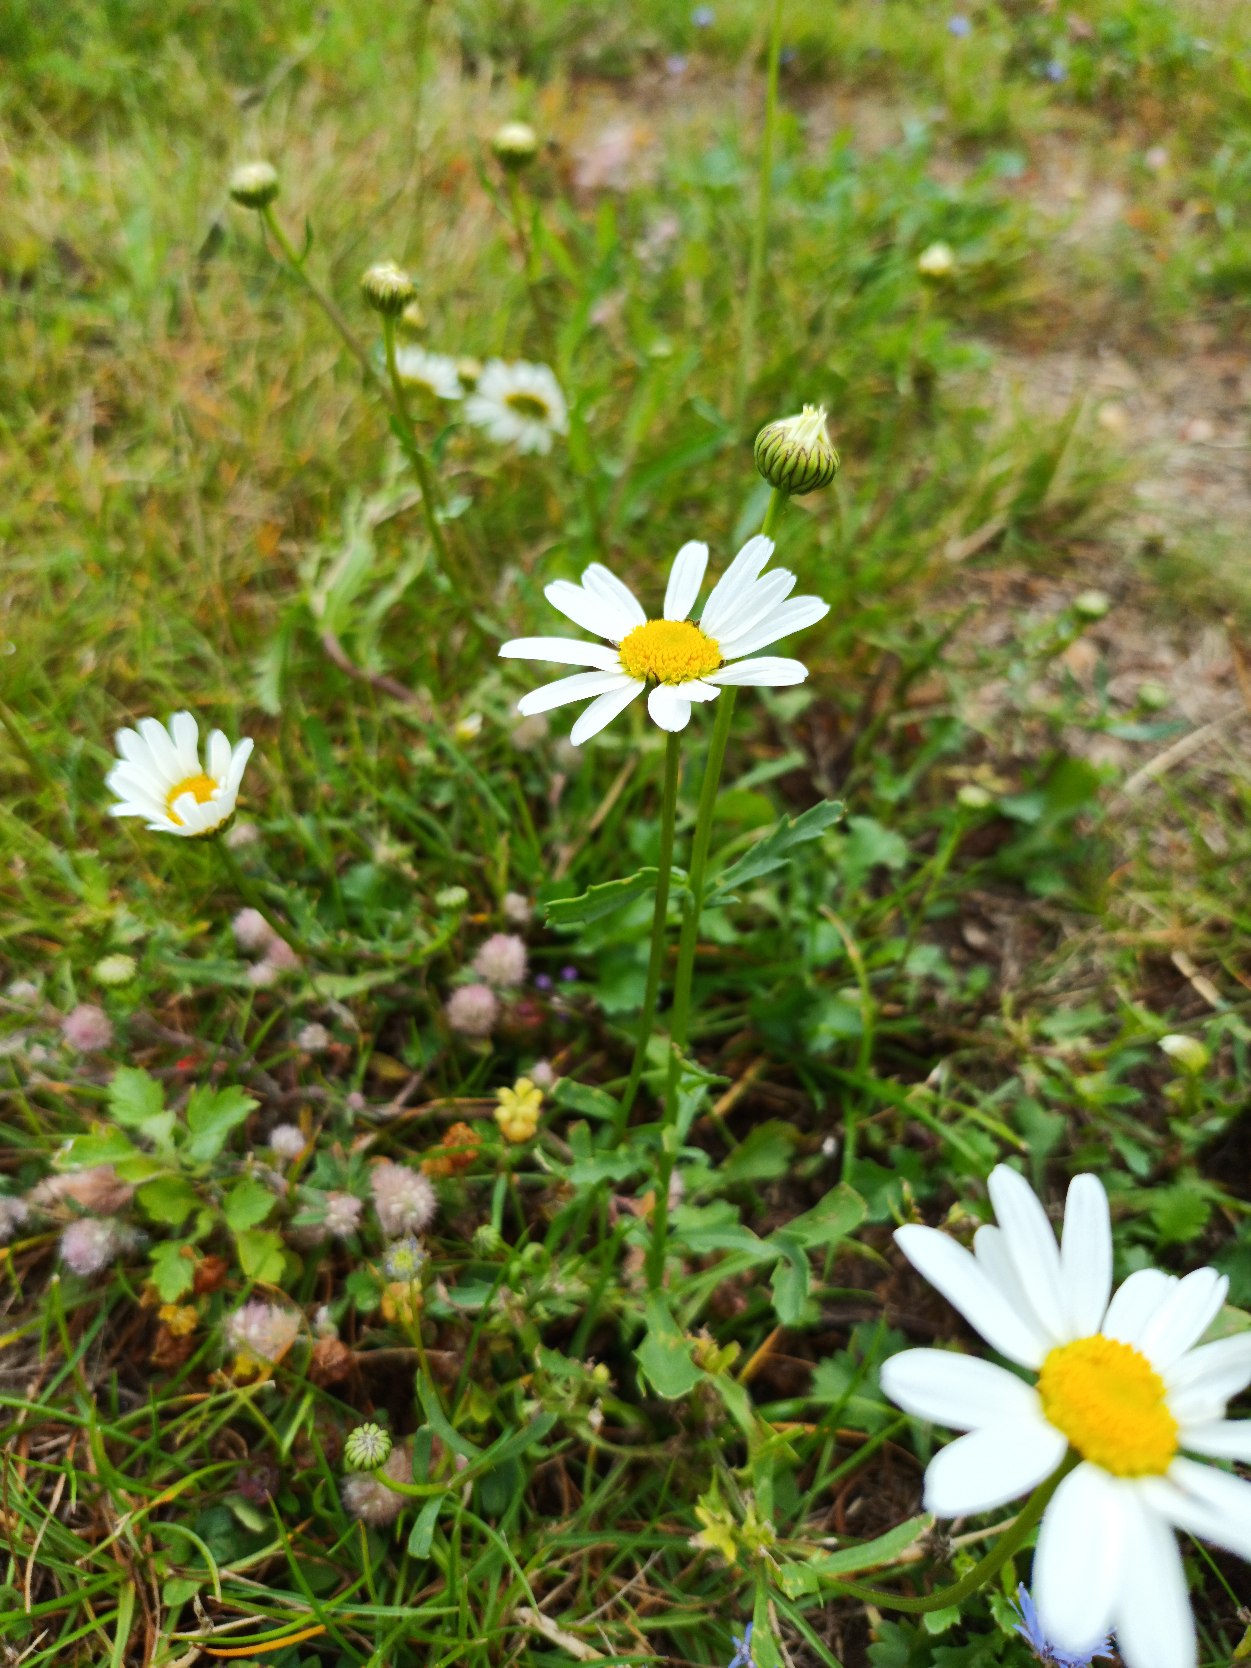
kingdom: Plantae
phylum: Tracheophyta
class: Magnoliopsida
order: Asterales
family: Asteraceae
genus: Leucanthemum
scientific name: Leucanthemum vulgare
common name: Hvid okseøje
